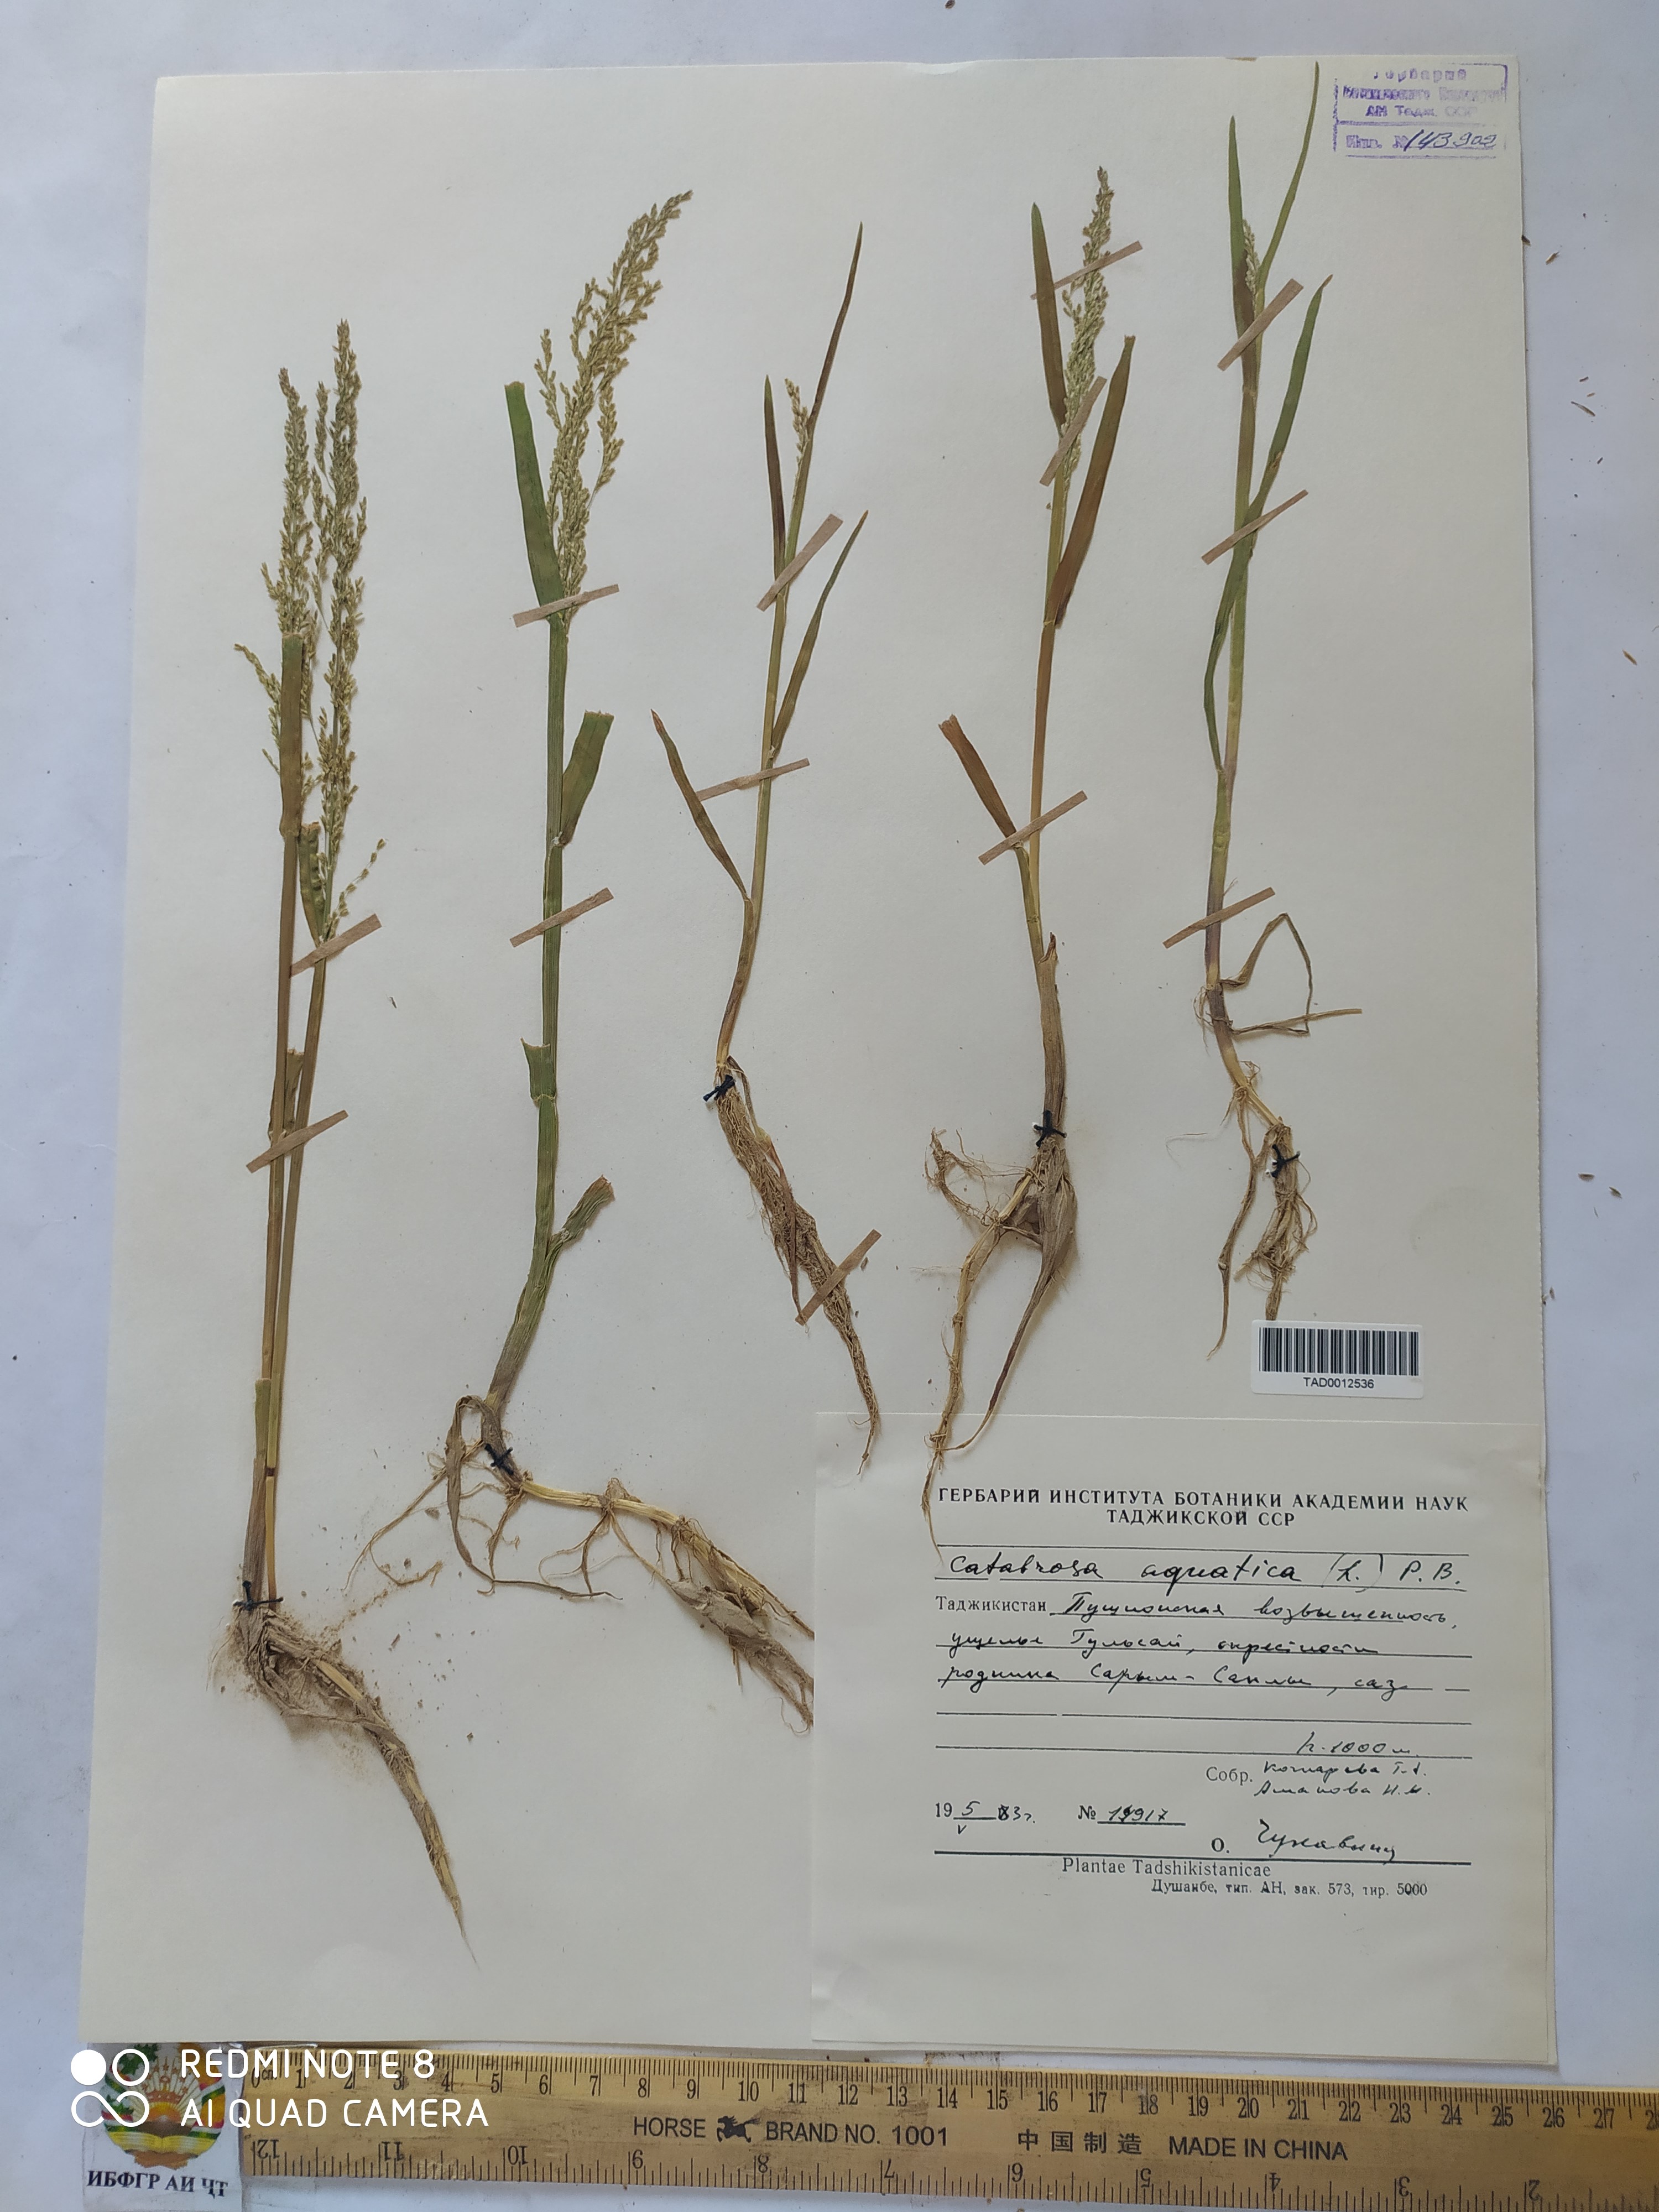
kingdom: Plantae
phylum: Tracheophyta
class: Liliopsida
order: Poales
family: Poaceae
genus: Catabrosa
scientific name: Catabrosa aquatica
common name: Whorl-grass
